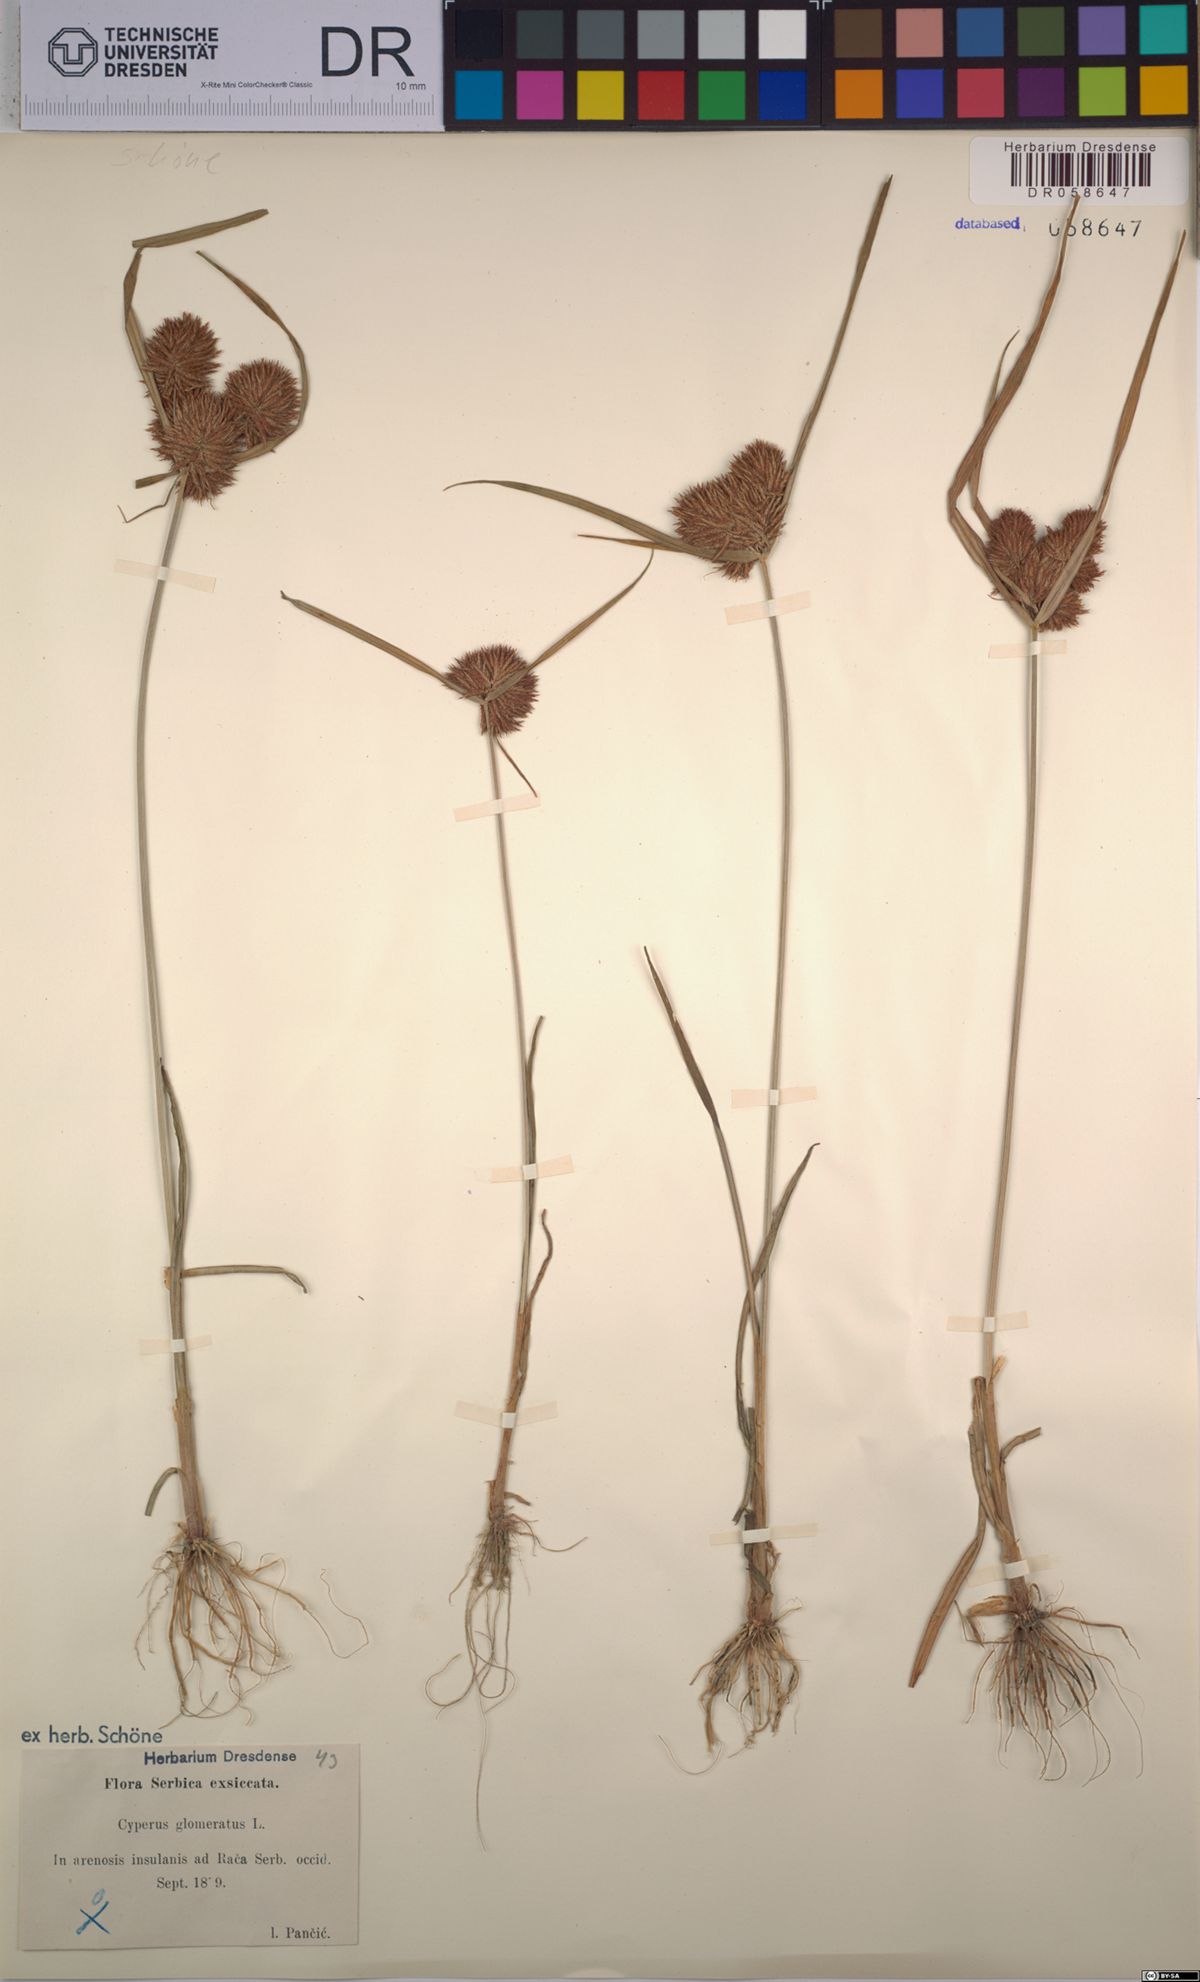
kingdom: Plantae
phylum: Tracheophyta
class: Liliopsida
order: Poales
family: Cyperaceae
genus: Cyperus
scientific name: Cyperus glomeratus
